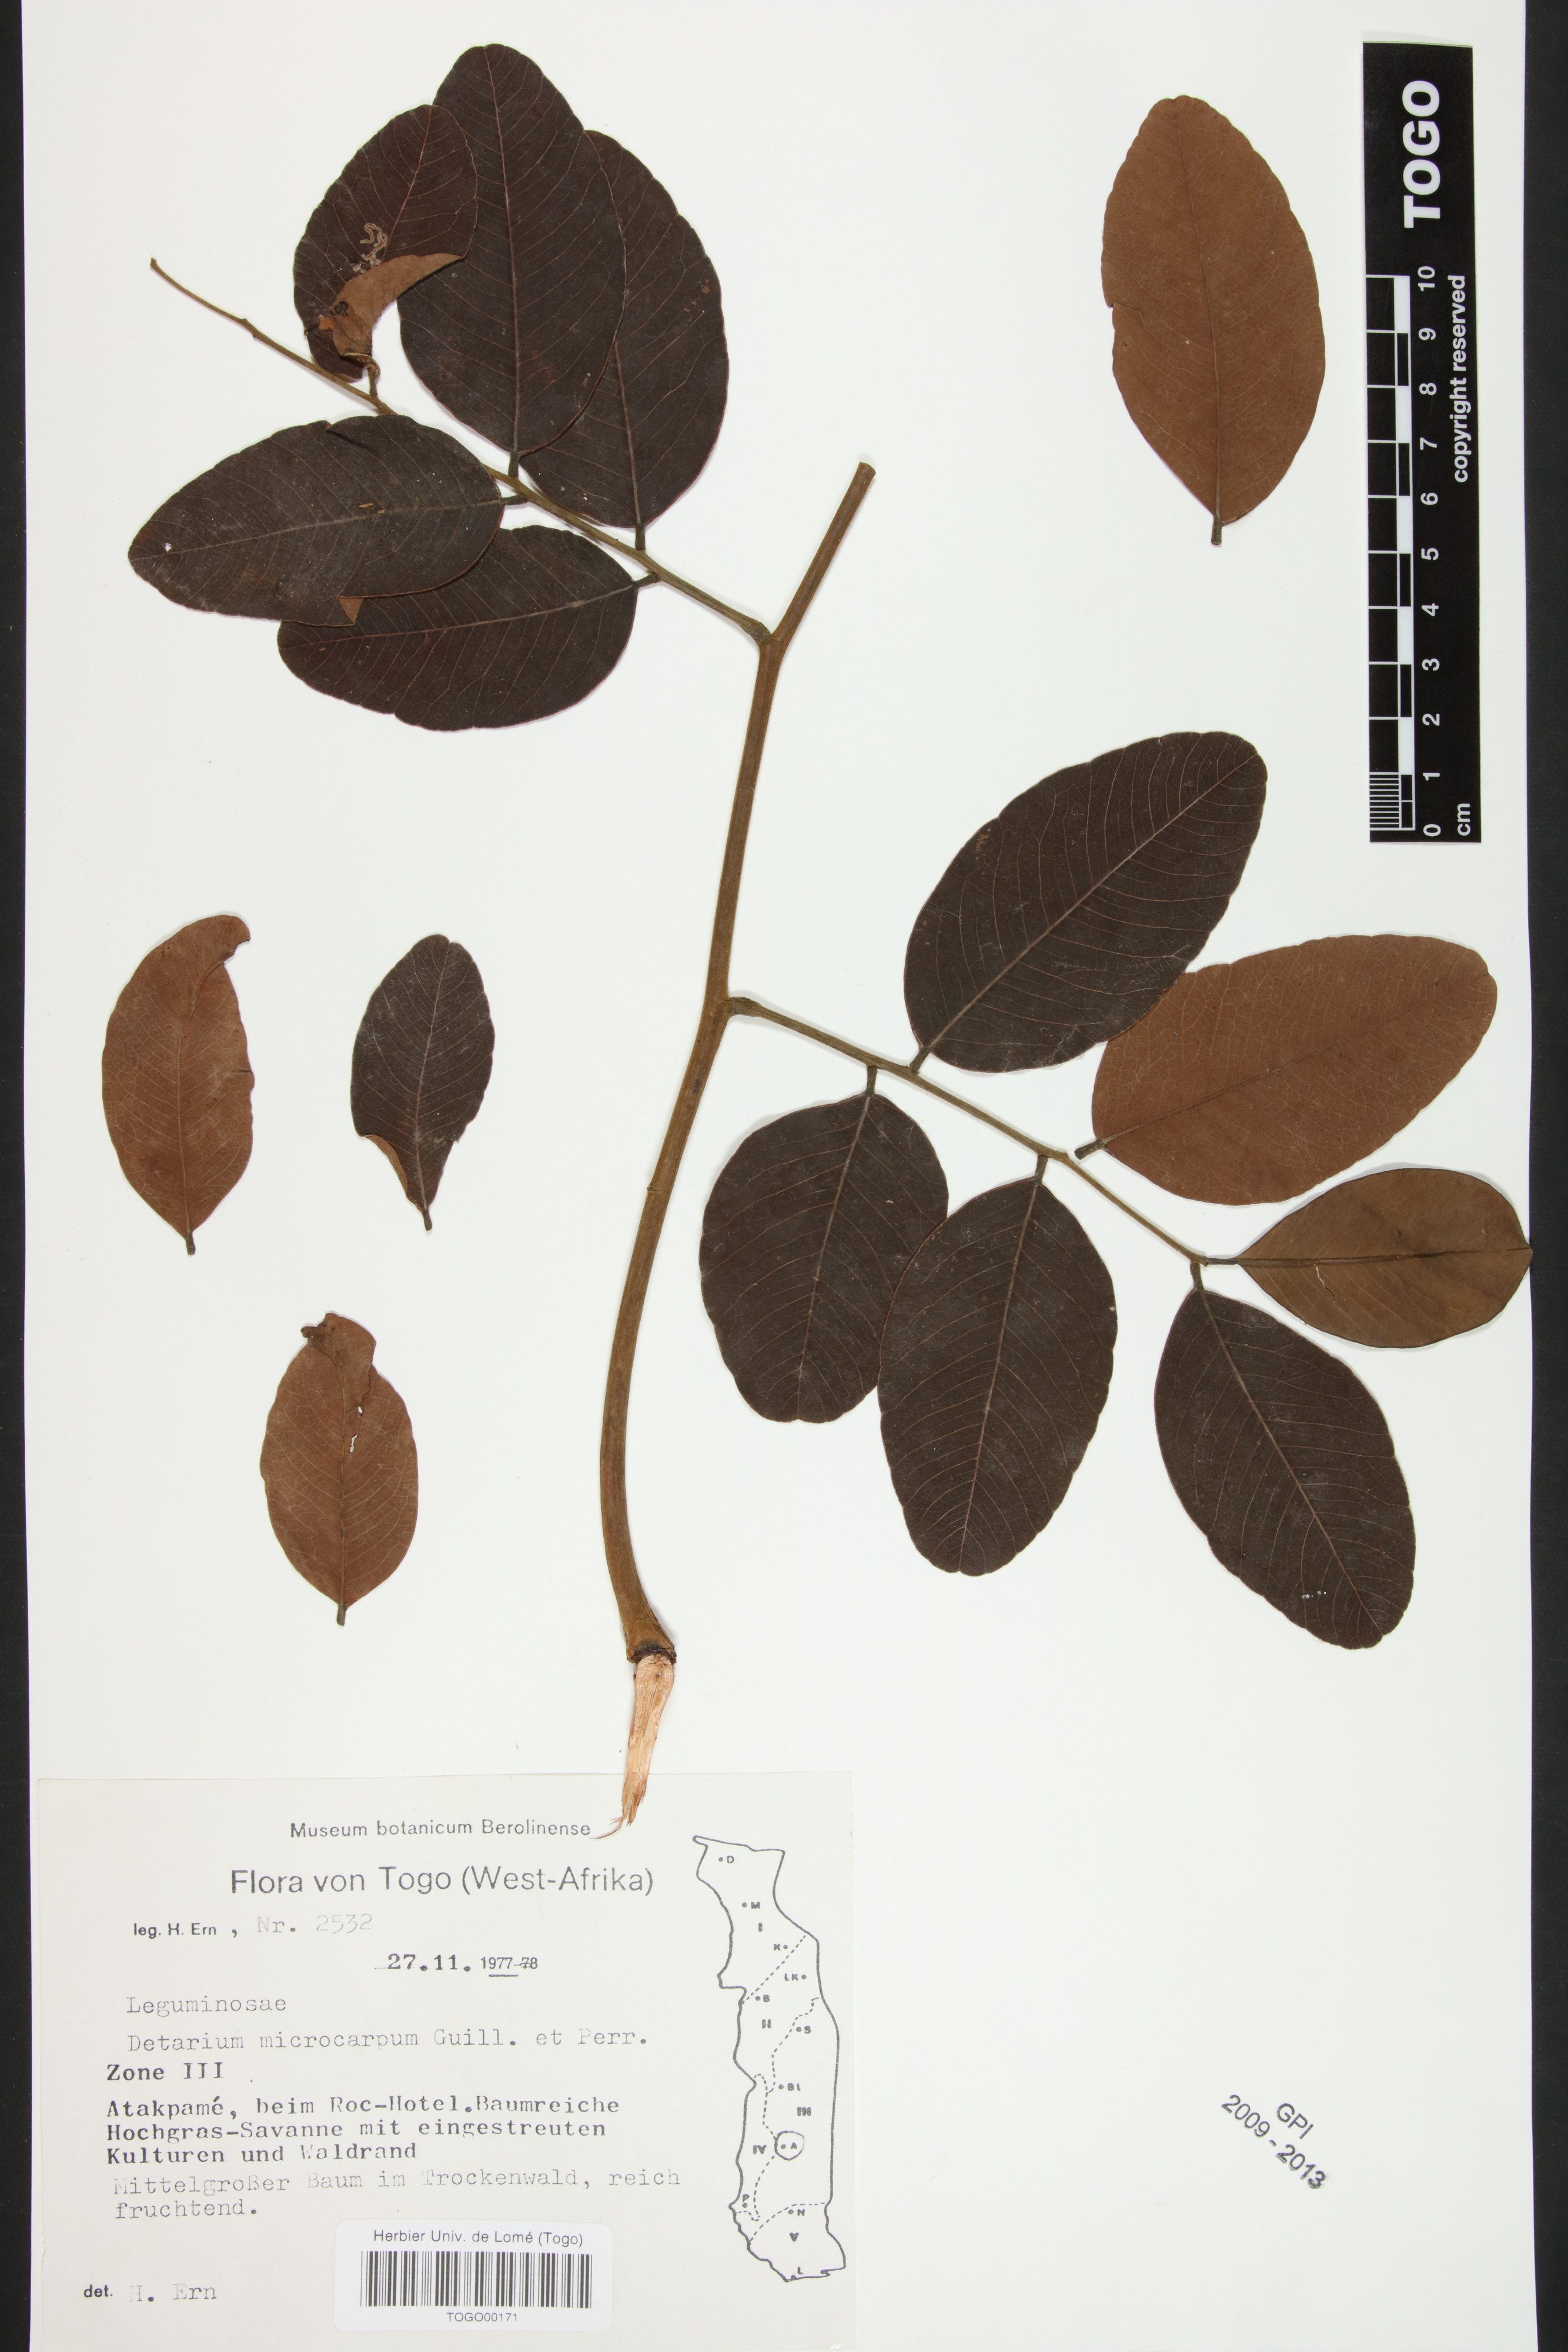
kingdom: Plantae
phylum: Tracheophyta
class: Magnoliopsida
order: Fabales
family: Fabaceae
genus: Detarium
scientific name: Detarium microcarpum
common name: Sweet dattock
